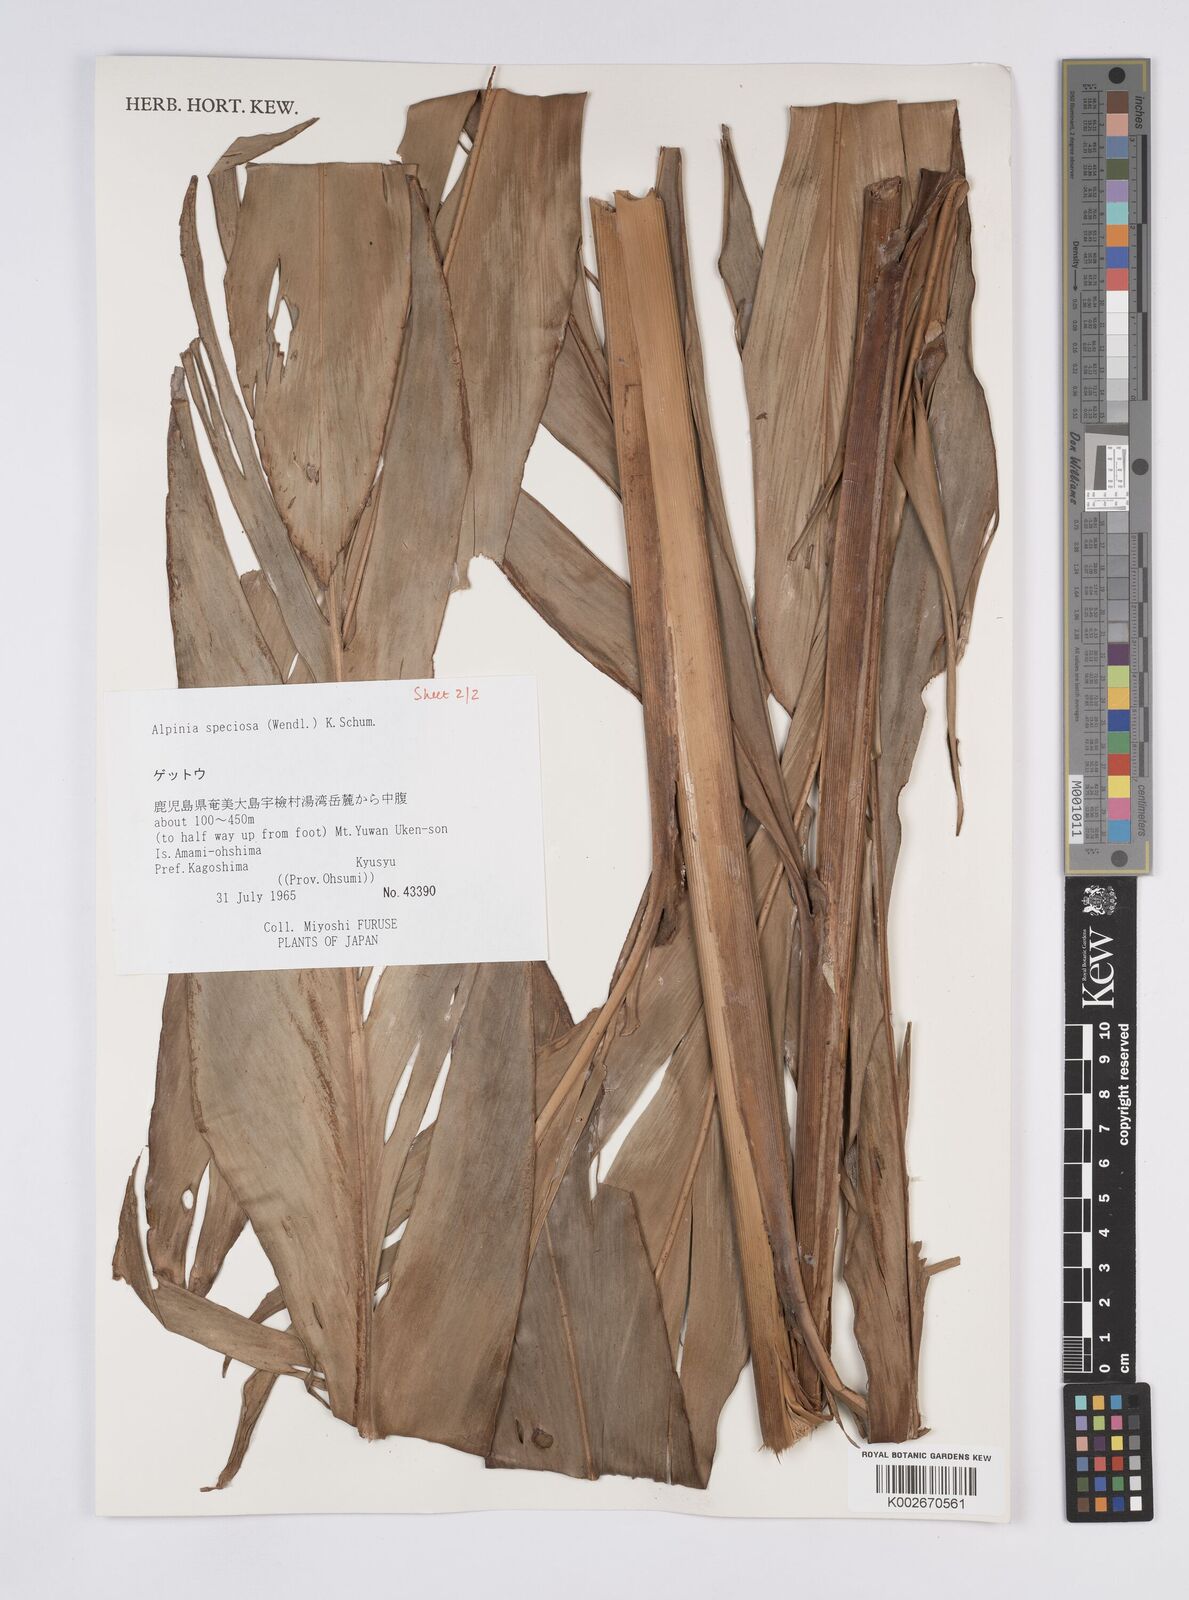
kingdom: Plantae
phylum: Tracheophyta
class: Liliopsida
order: Zingiberales
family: Zingiberaceae
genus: Alpinia
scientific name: Alpinia zerumbet
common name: Shellplant
